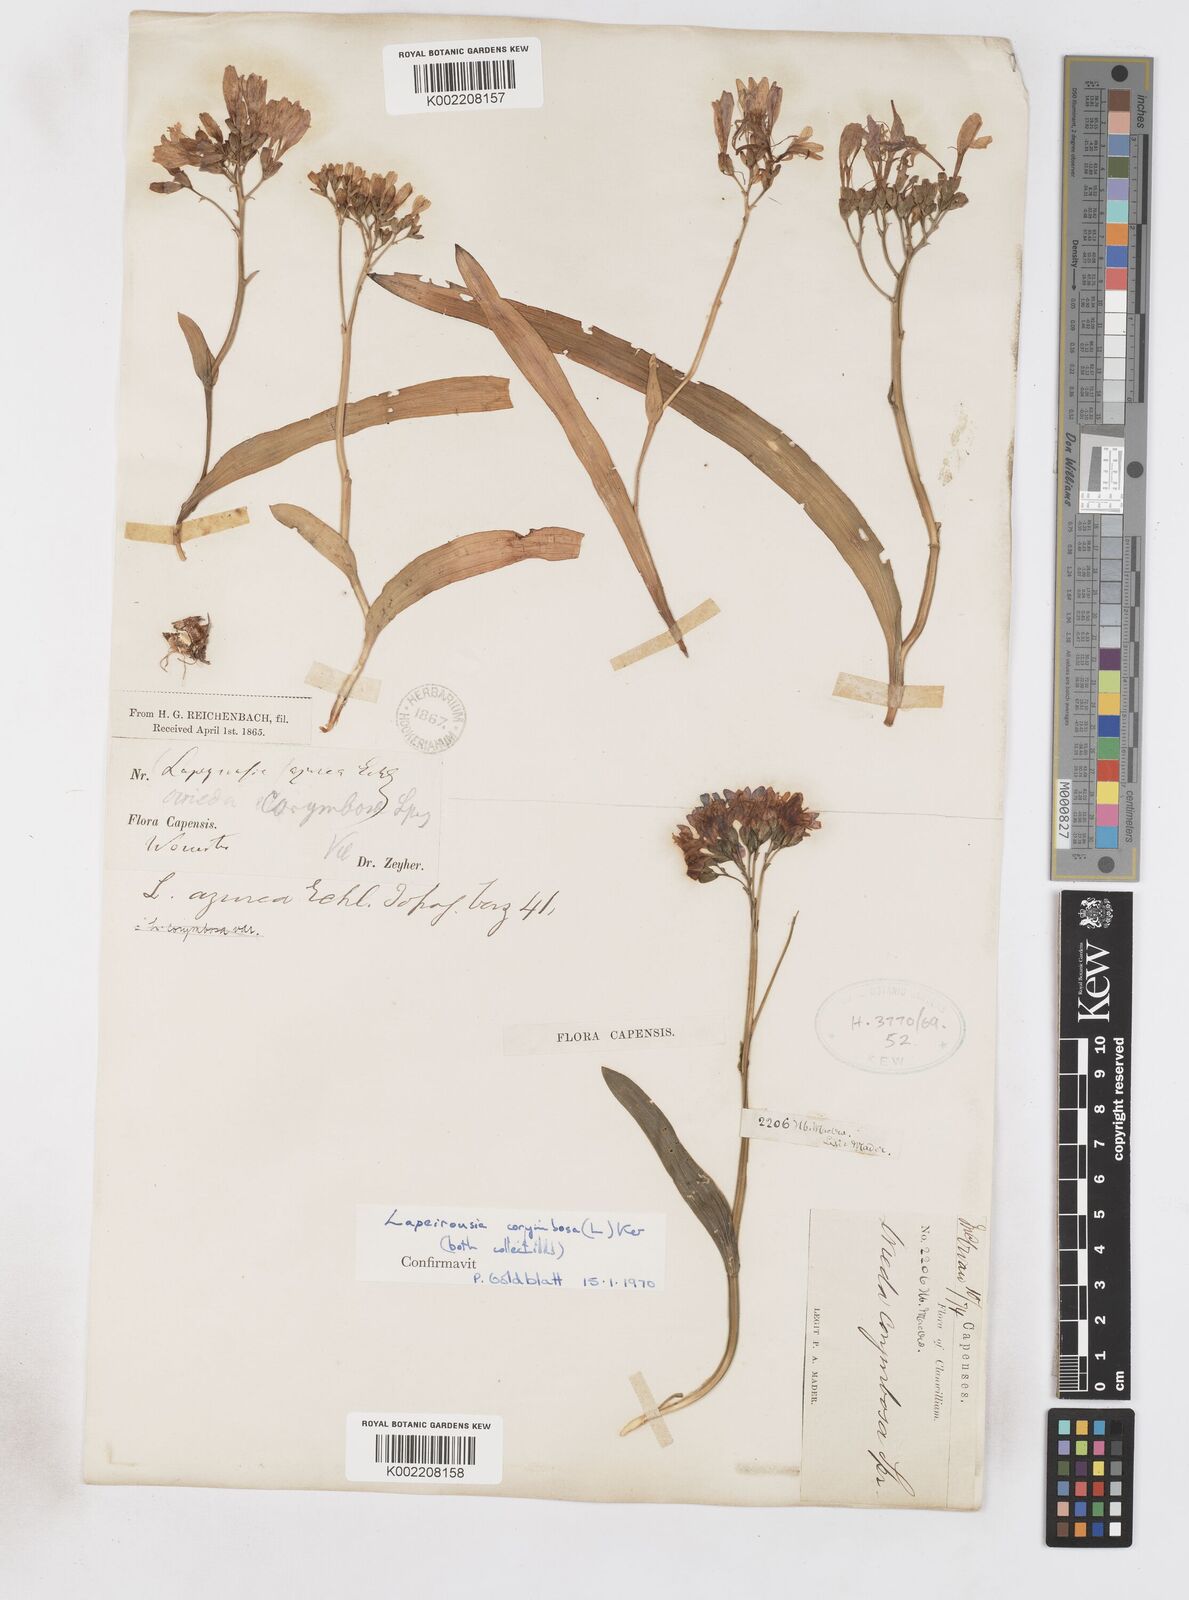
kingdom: Plantae
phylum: Tracheophyta
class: Liliopsida
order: Asparagales
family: Iridaceae
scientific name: Iridaceae
